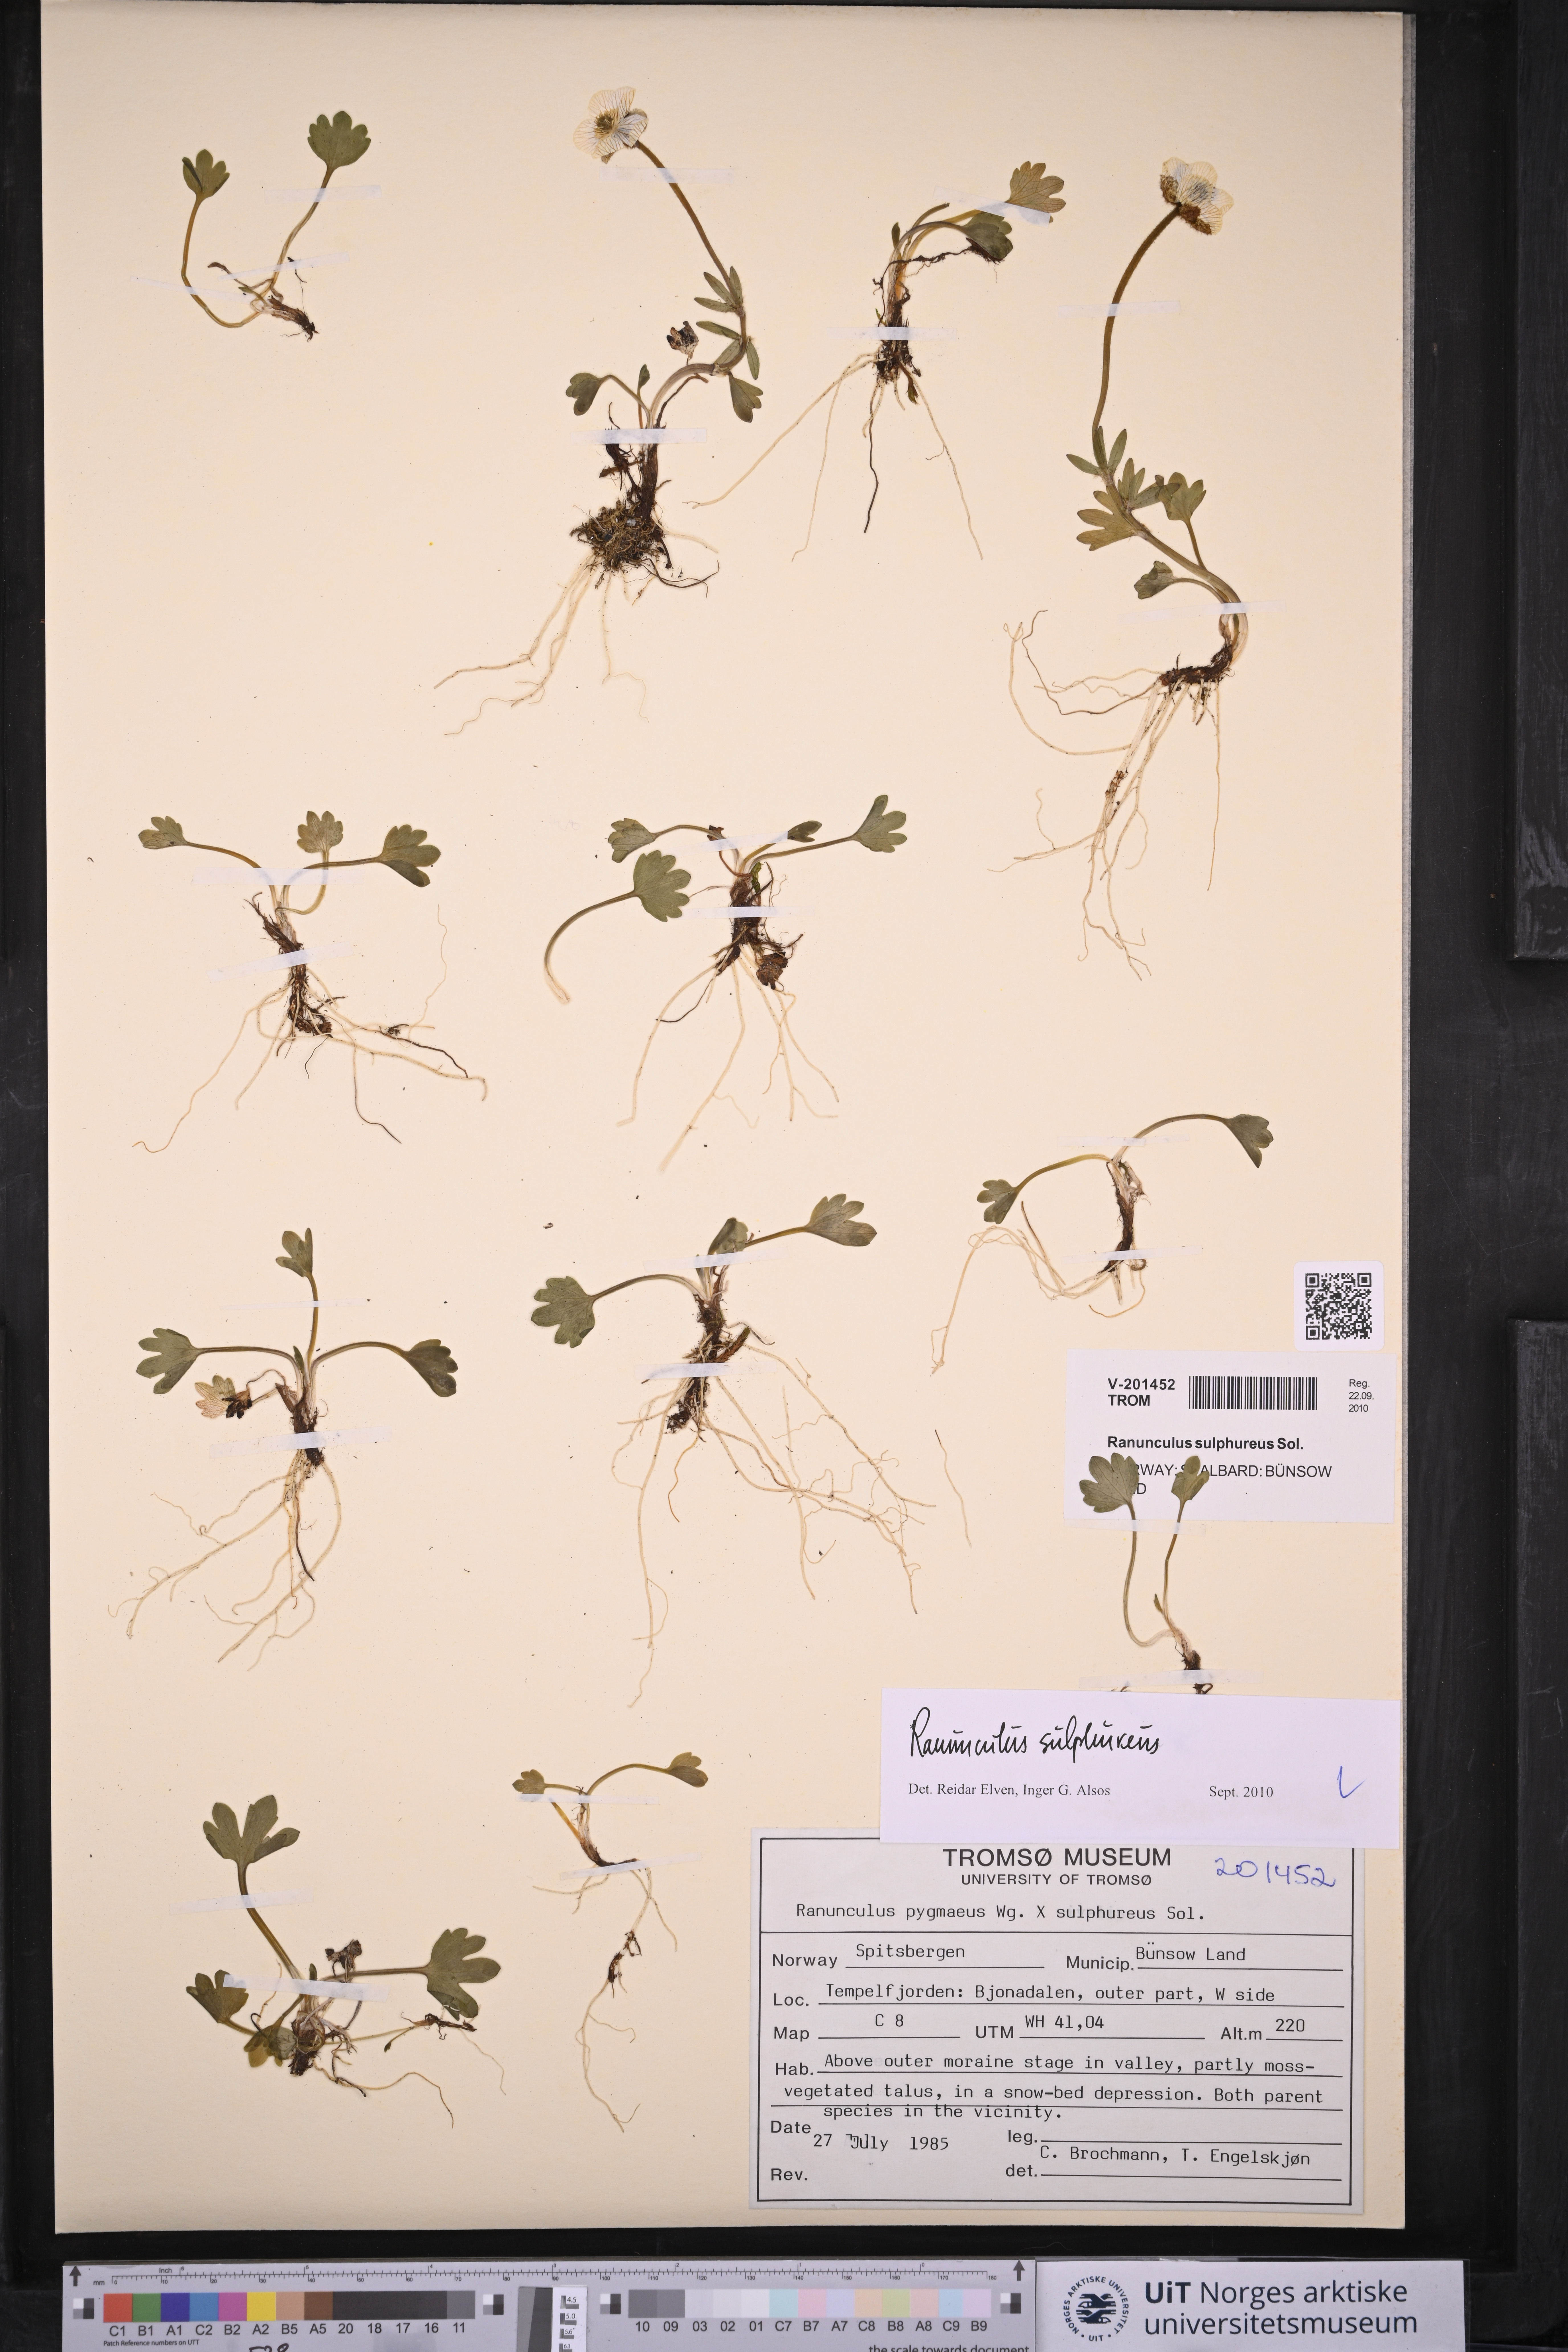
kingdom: Plantae
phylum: Tracheophyta
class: Magnoliopsida
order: Ranunculales
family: Ranunculaceae
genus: Ranunculus
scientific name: Ranunculus sulphureus
